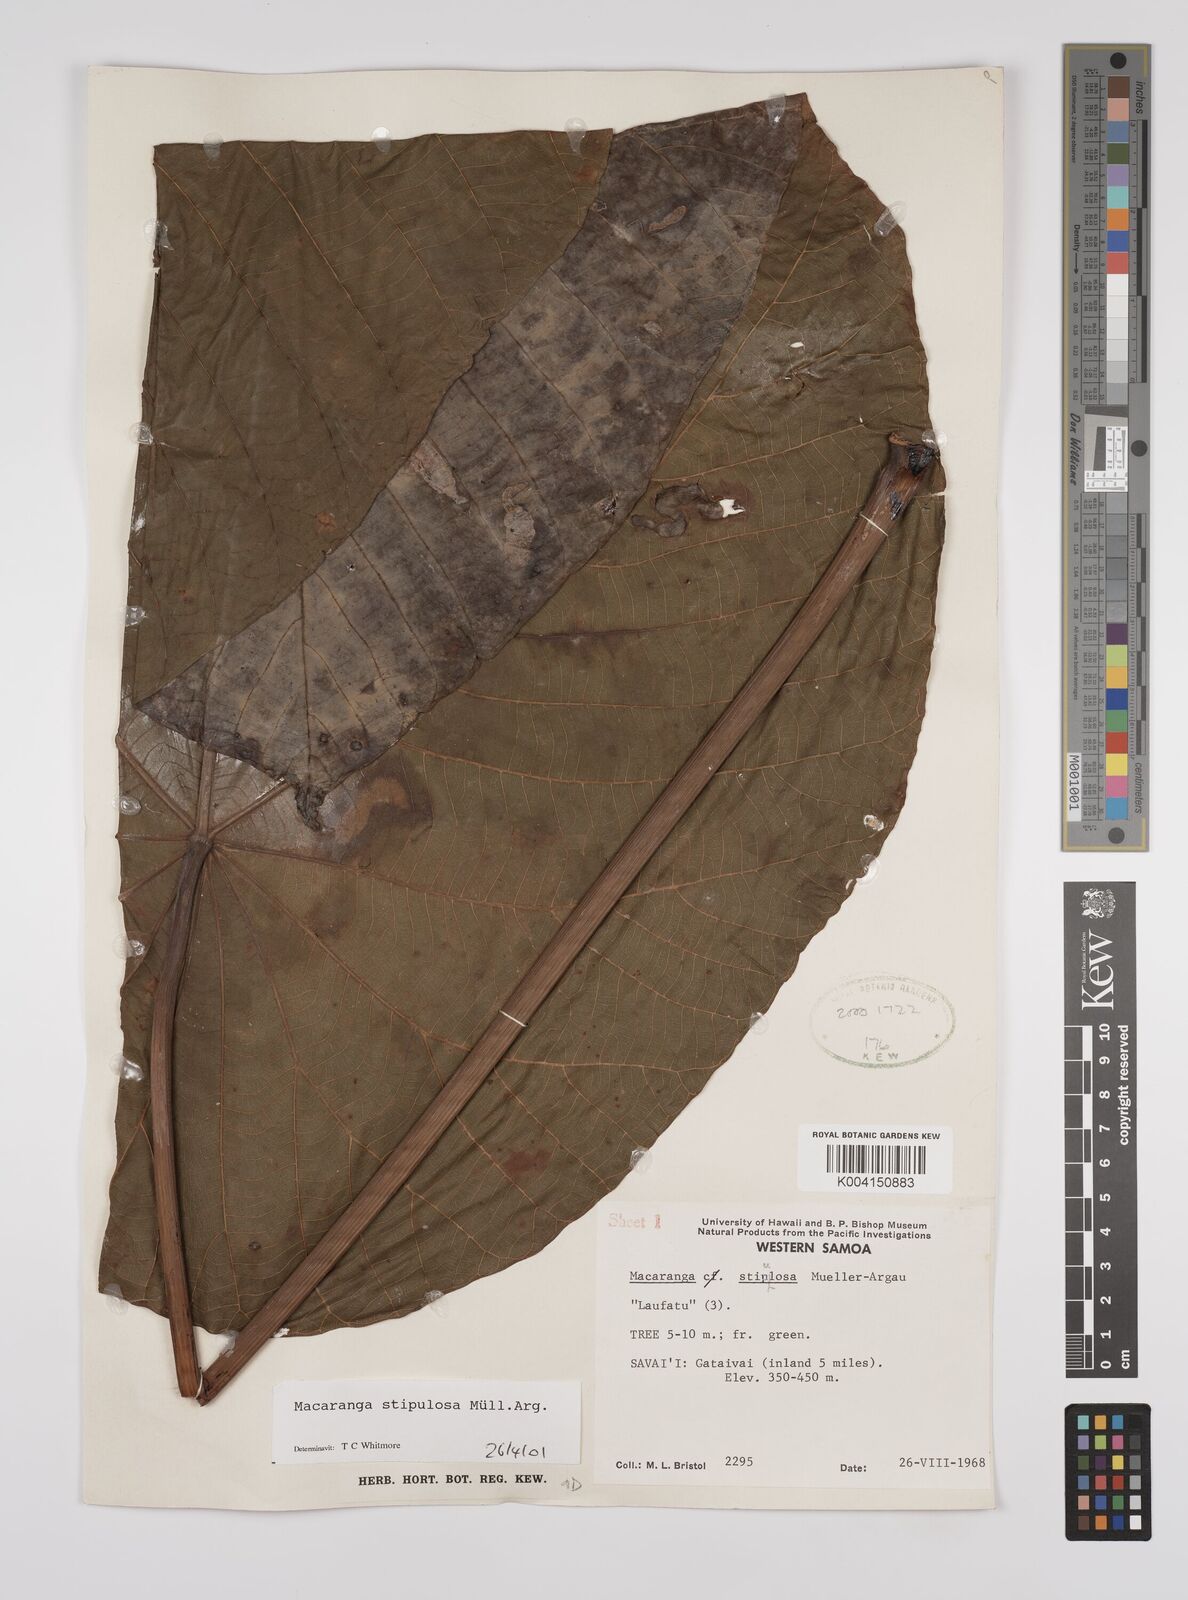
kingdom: Plantae
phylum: Tracheophyta
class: Magnoliopsida
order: Malpighiales
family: Euphorbiaceae
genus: Macaranga
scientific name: Macaranga stipulosa
